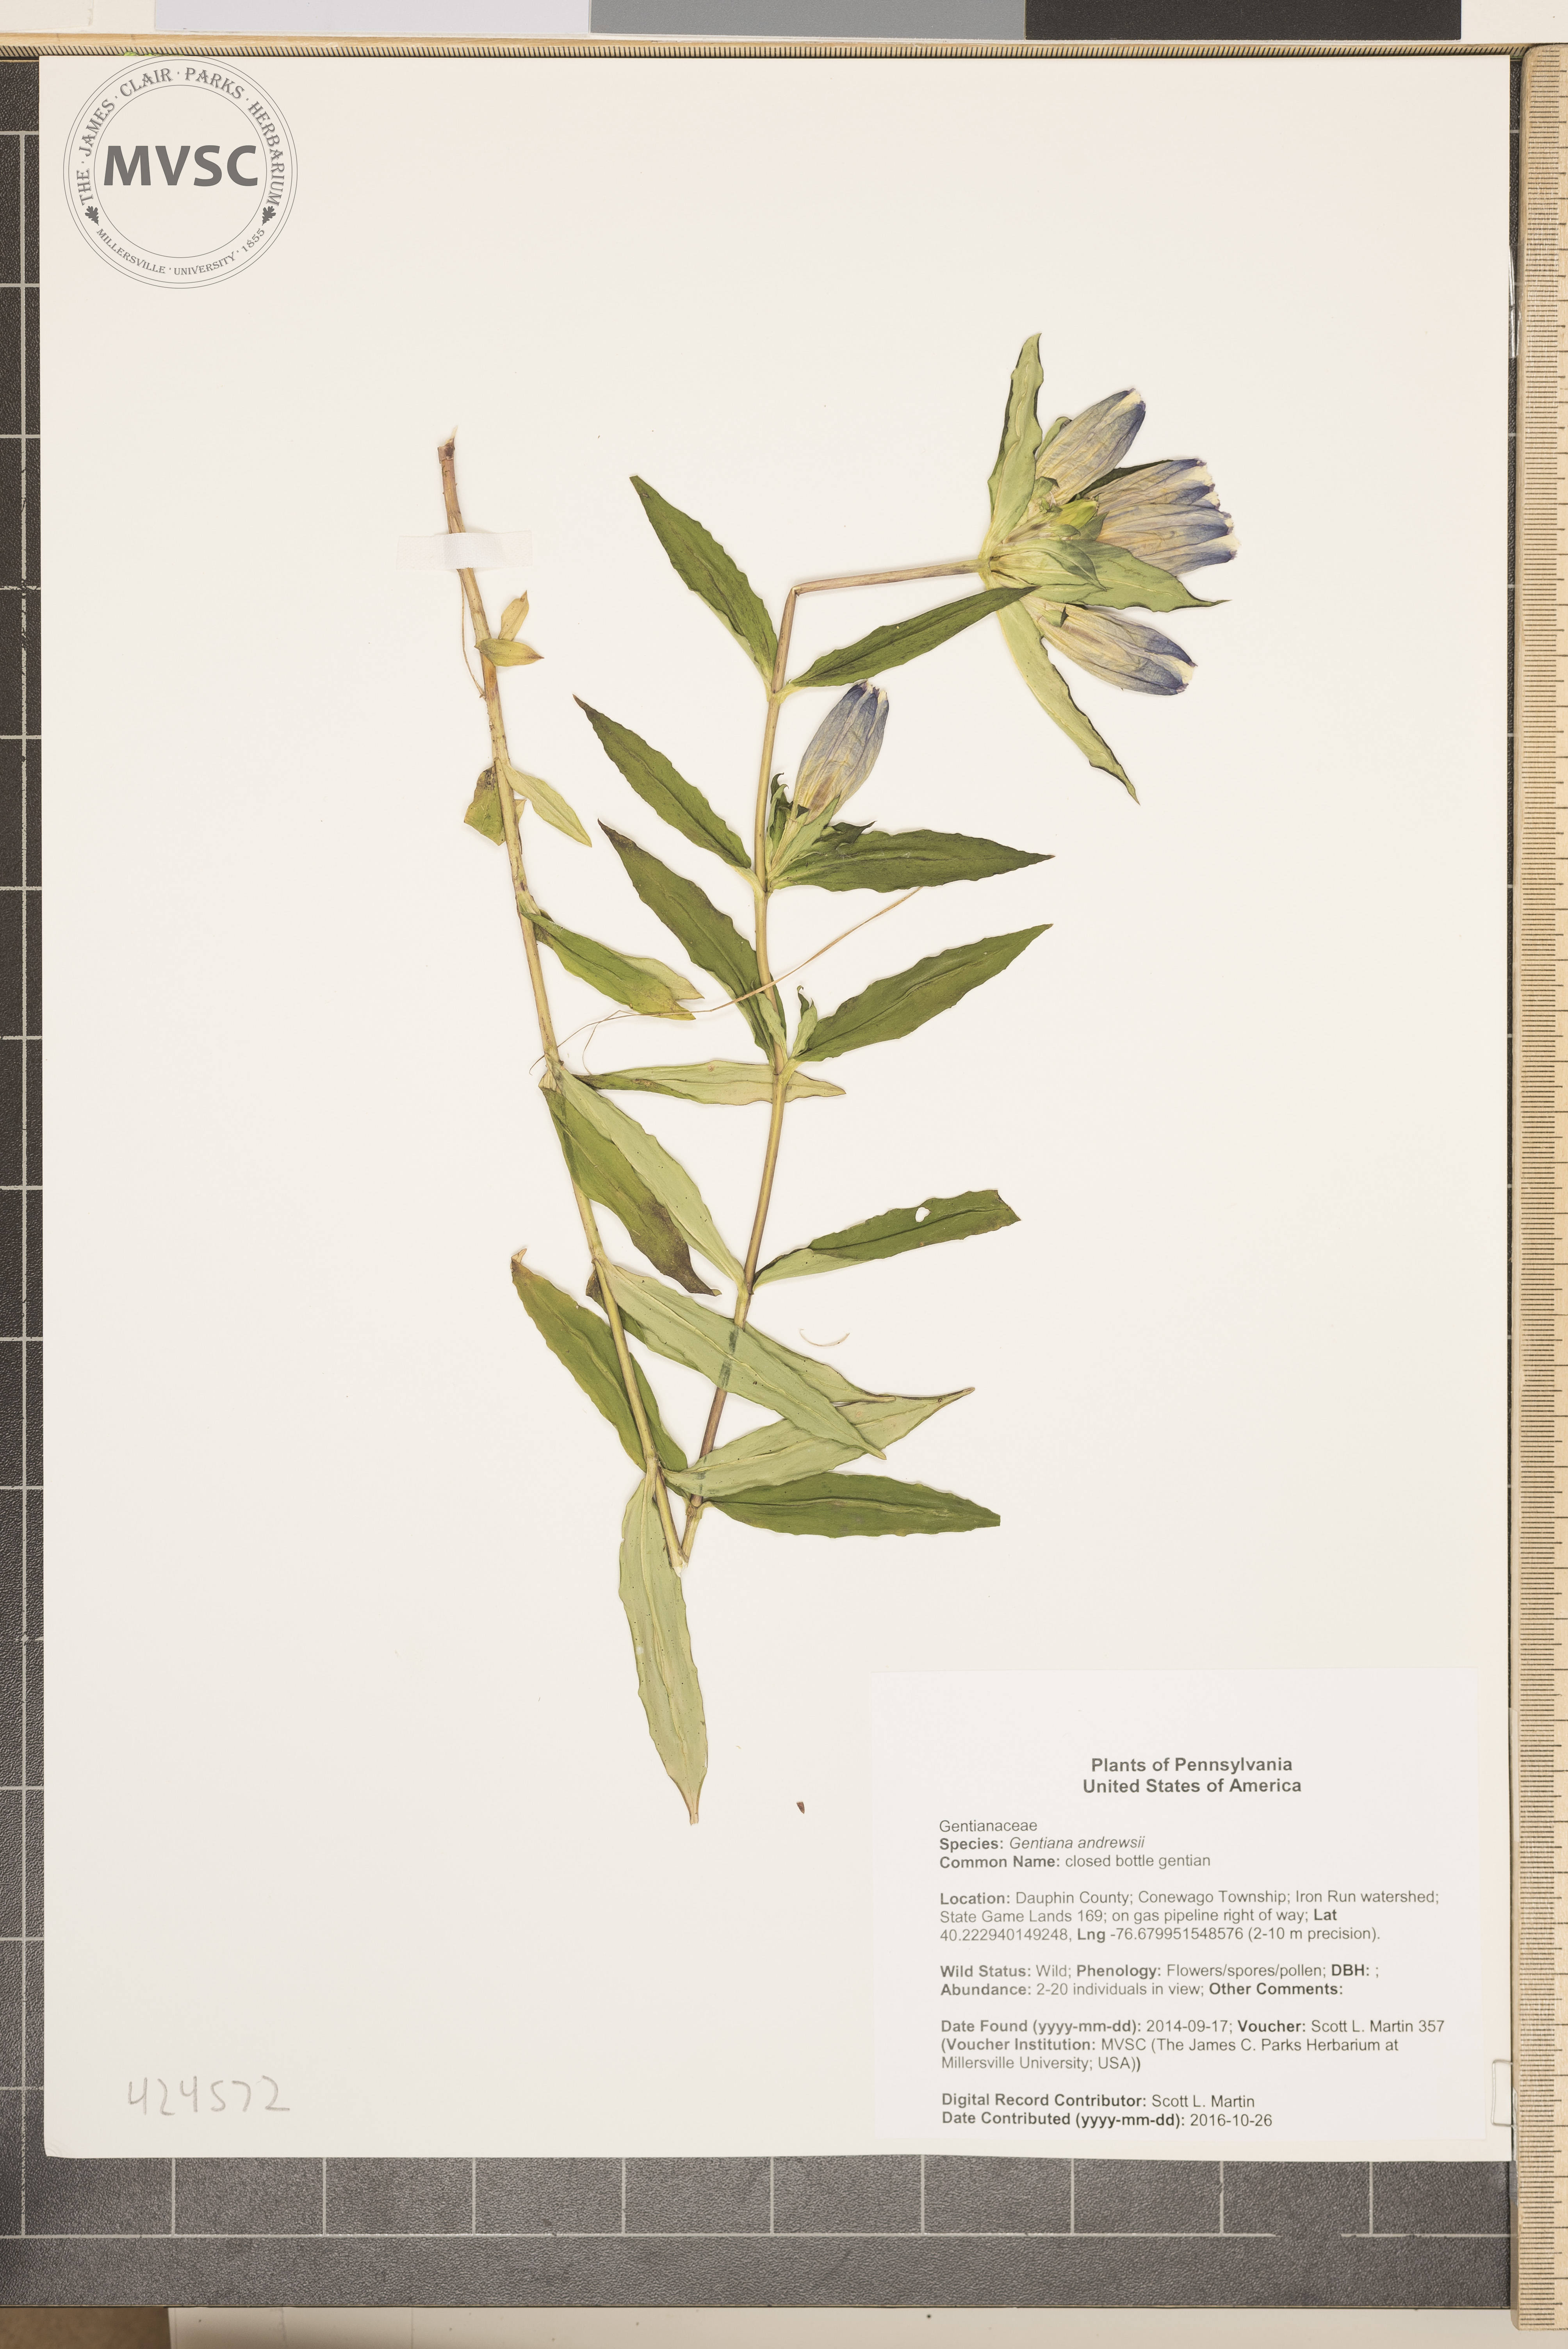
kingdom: Plantae
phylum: Tracheophyta
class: Magnoliopsida
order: Gentianales
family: Gentianaceae
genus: Gentiana
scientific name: Gentiana andrewsii
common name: closed bottle gentian
